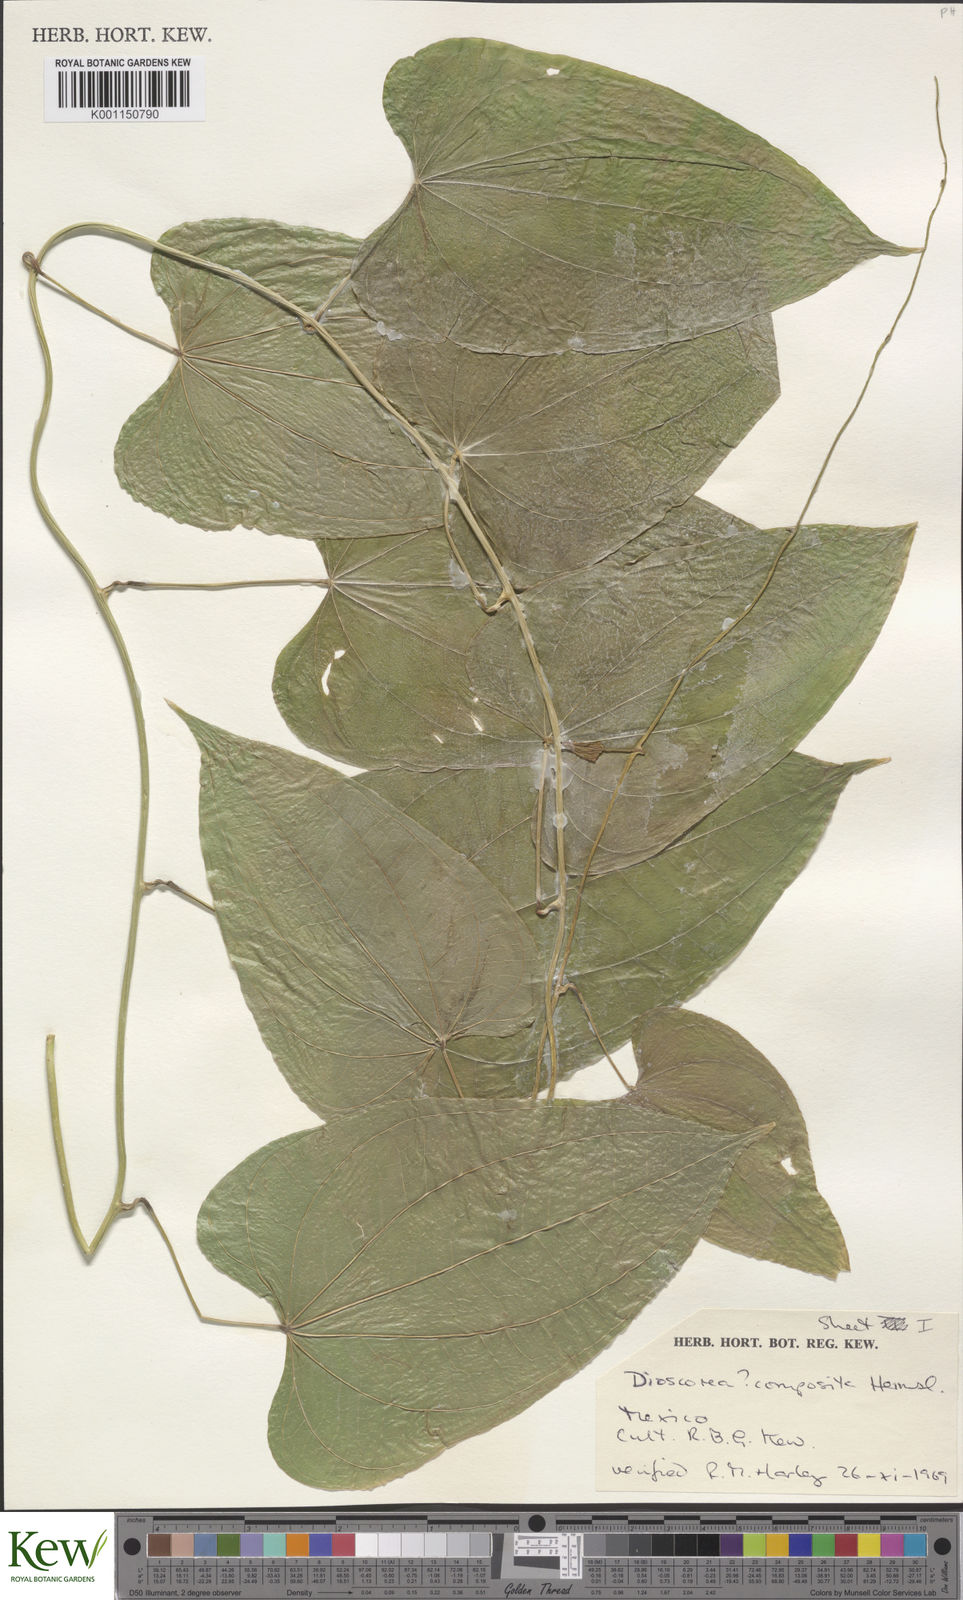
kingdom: Plantae
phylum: Tracheophyta
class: Liliopsida
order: Dioscoreales
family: Dioscoreaceae
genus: Dioscorea
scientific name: Dioscorea composita
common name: Barbasco
